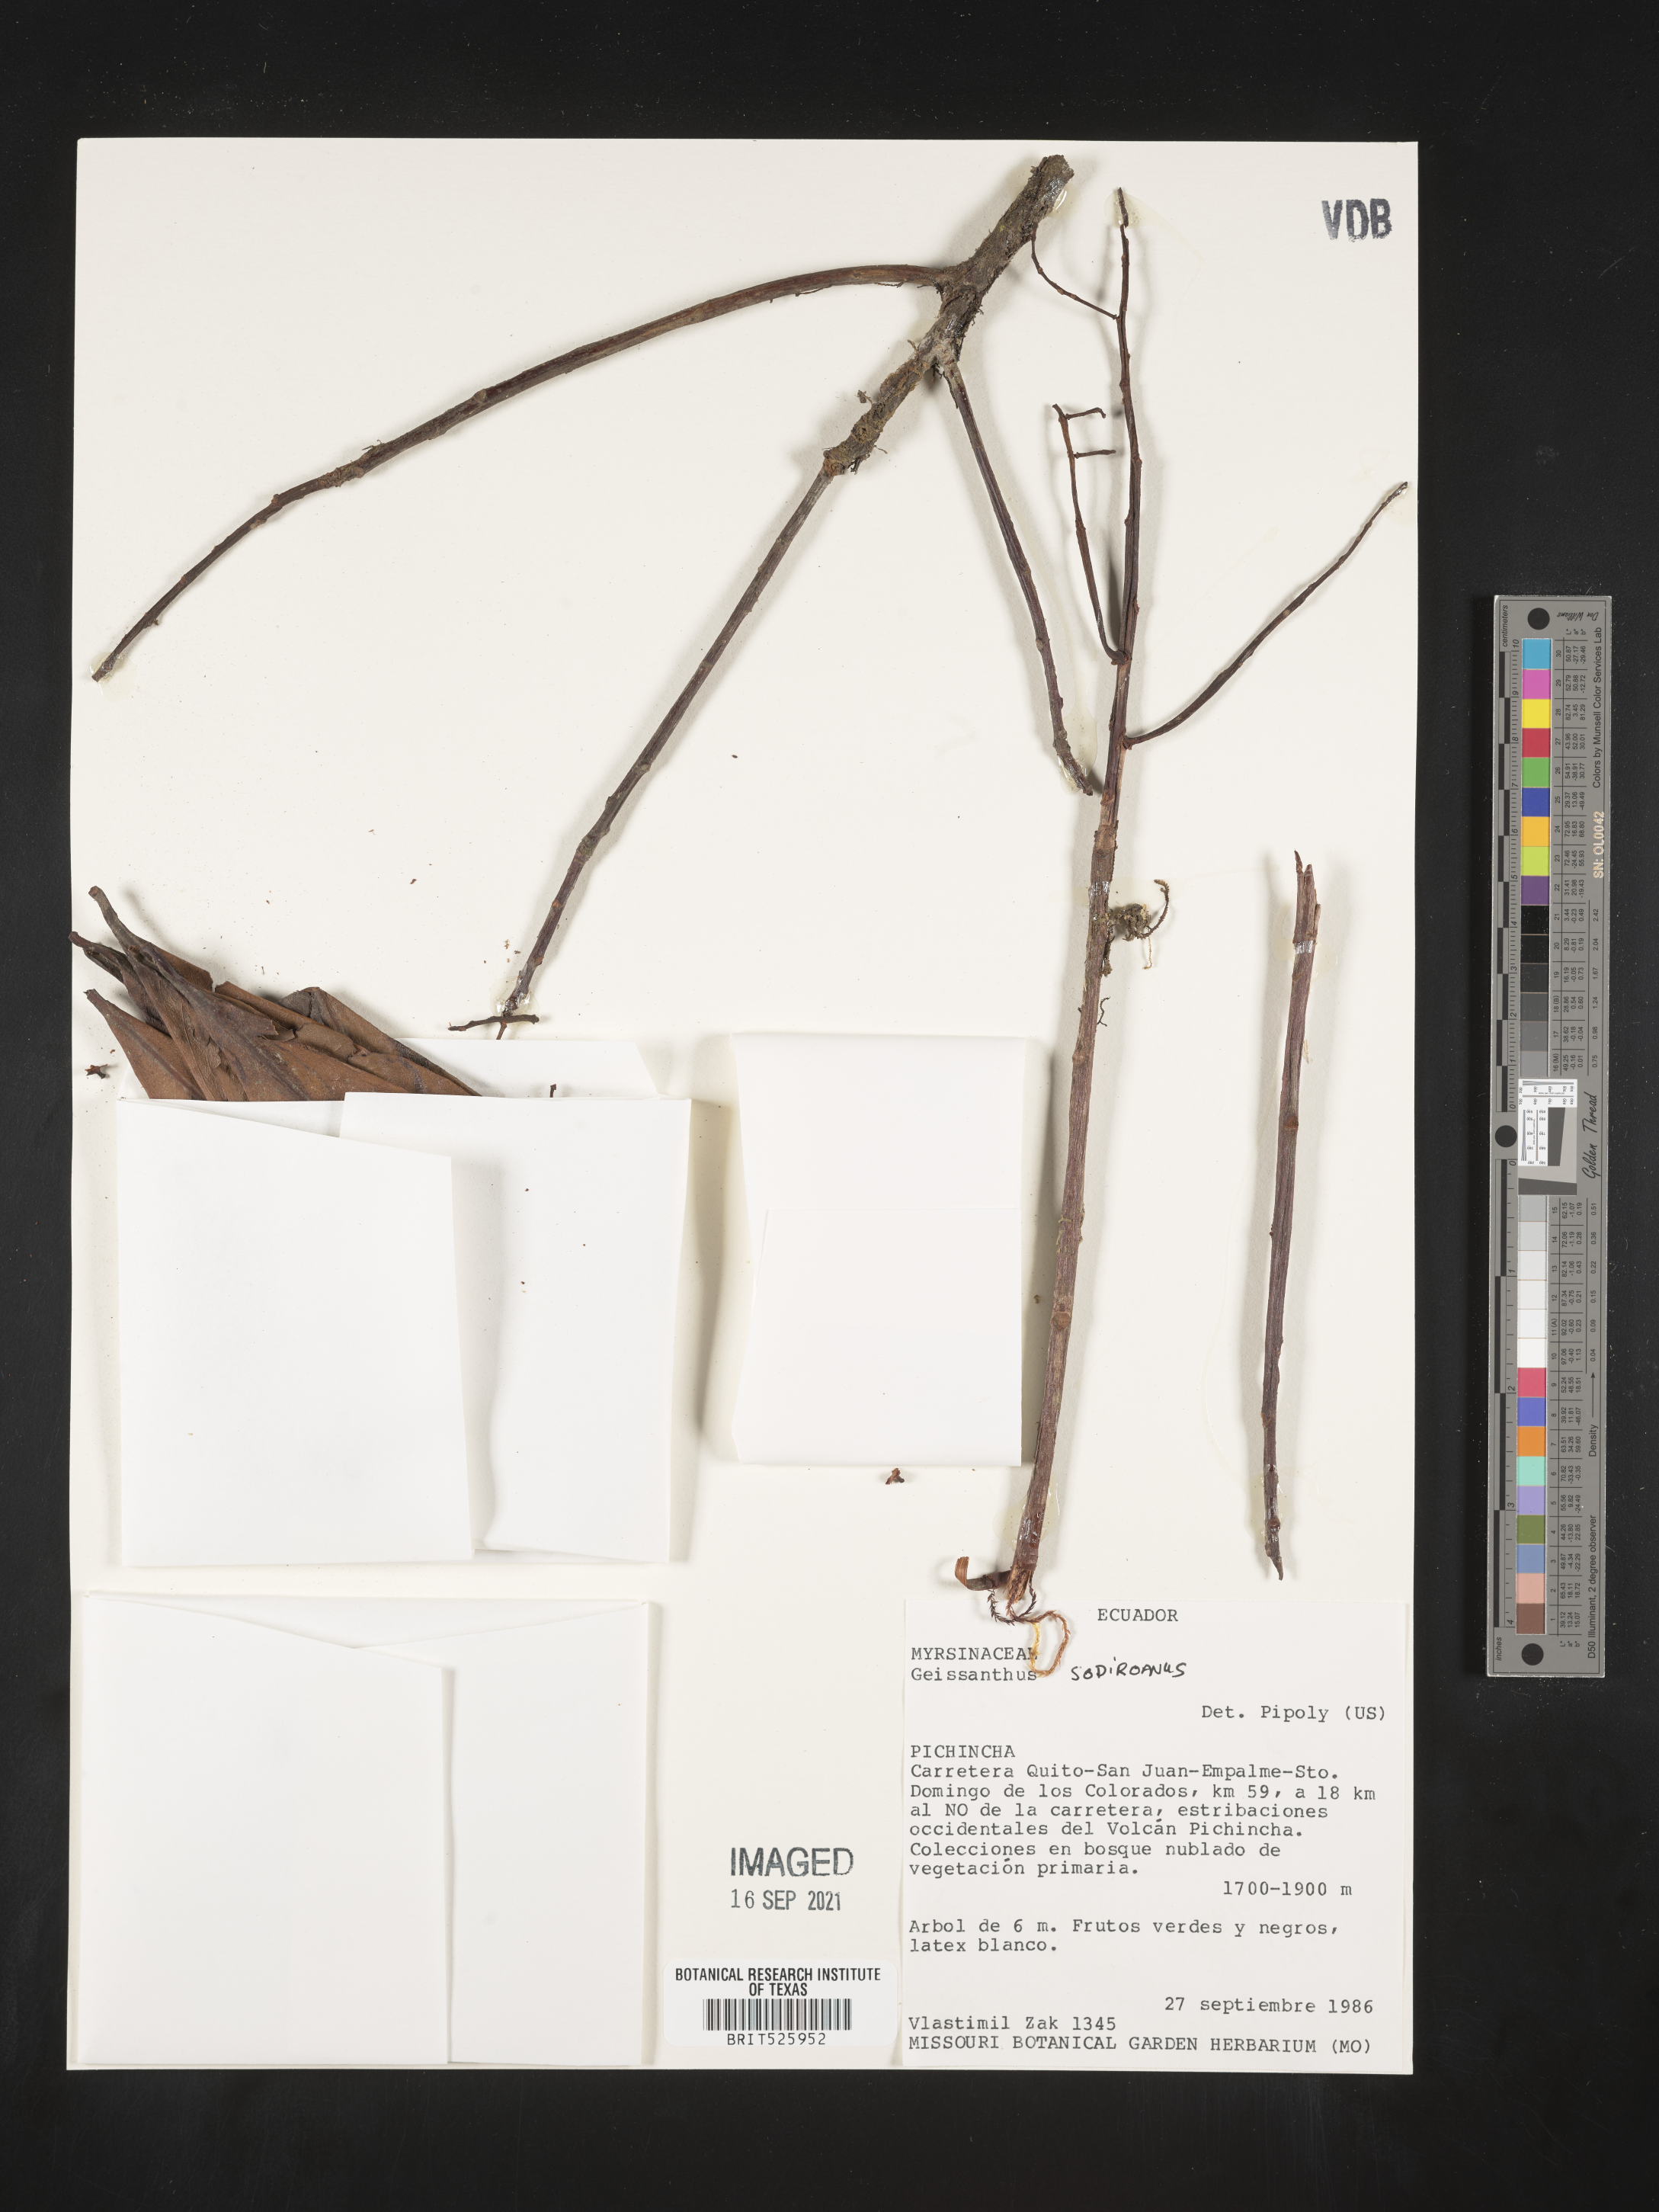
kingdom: Plantae
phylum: Tracheophyta
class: Magnoliopsida
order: Ericales
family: Primulaceae
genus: Geissanthus
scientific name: Geissanthus
